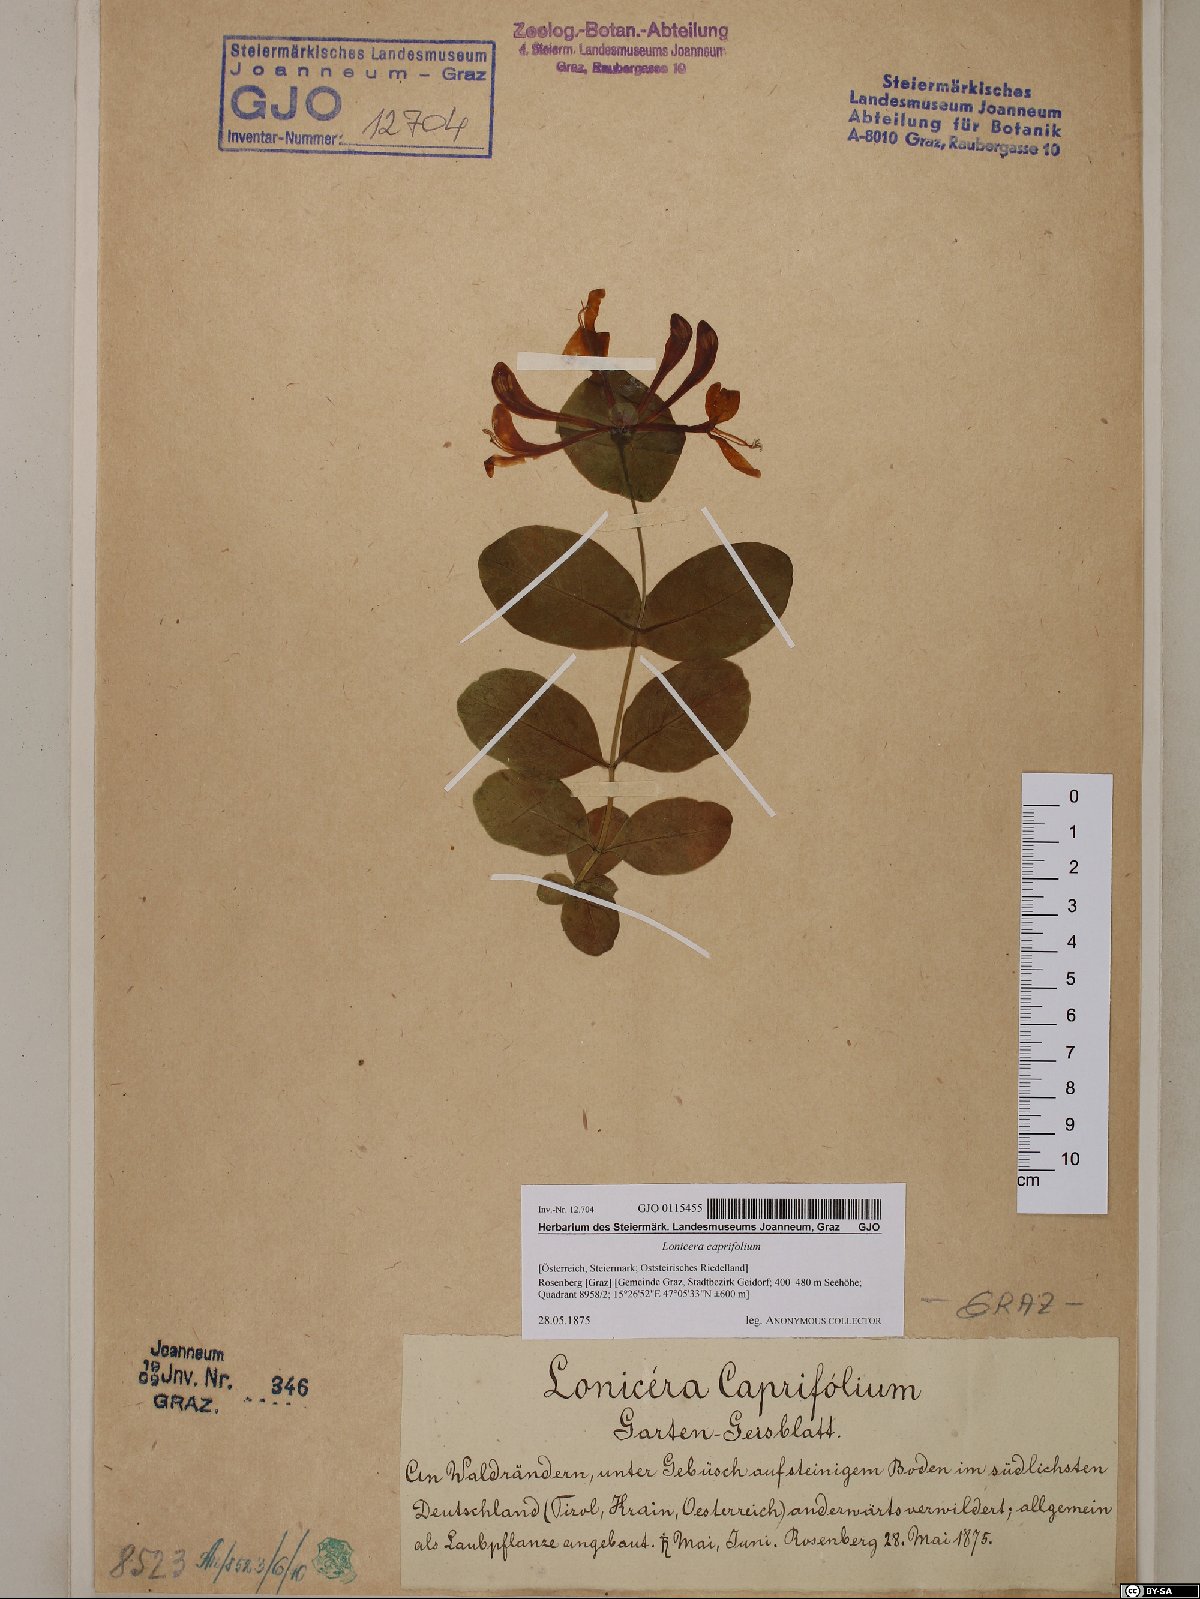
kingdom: Plantae
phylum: Tracheophyta
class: Magnoliopsida
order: Dipsacales
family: Caprifoliaceae
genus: Lonicera
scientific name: Lonicera caprifolium
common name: Perfoliate honeysuckle
